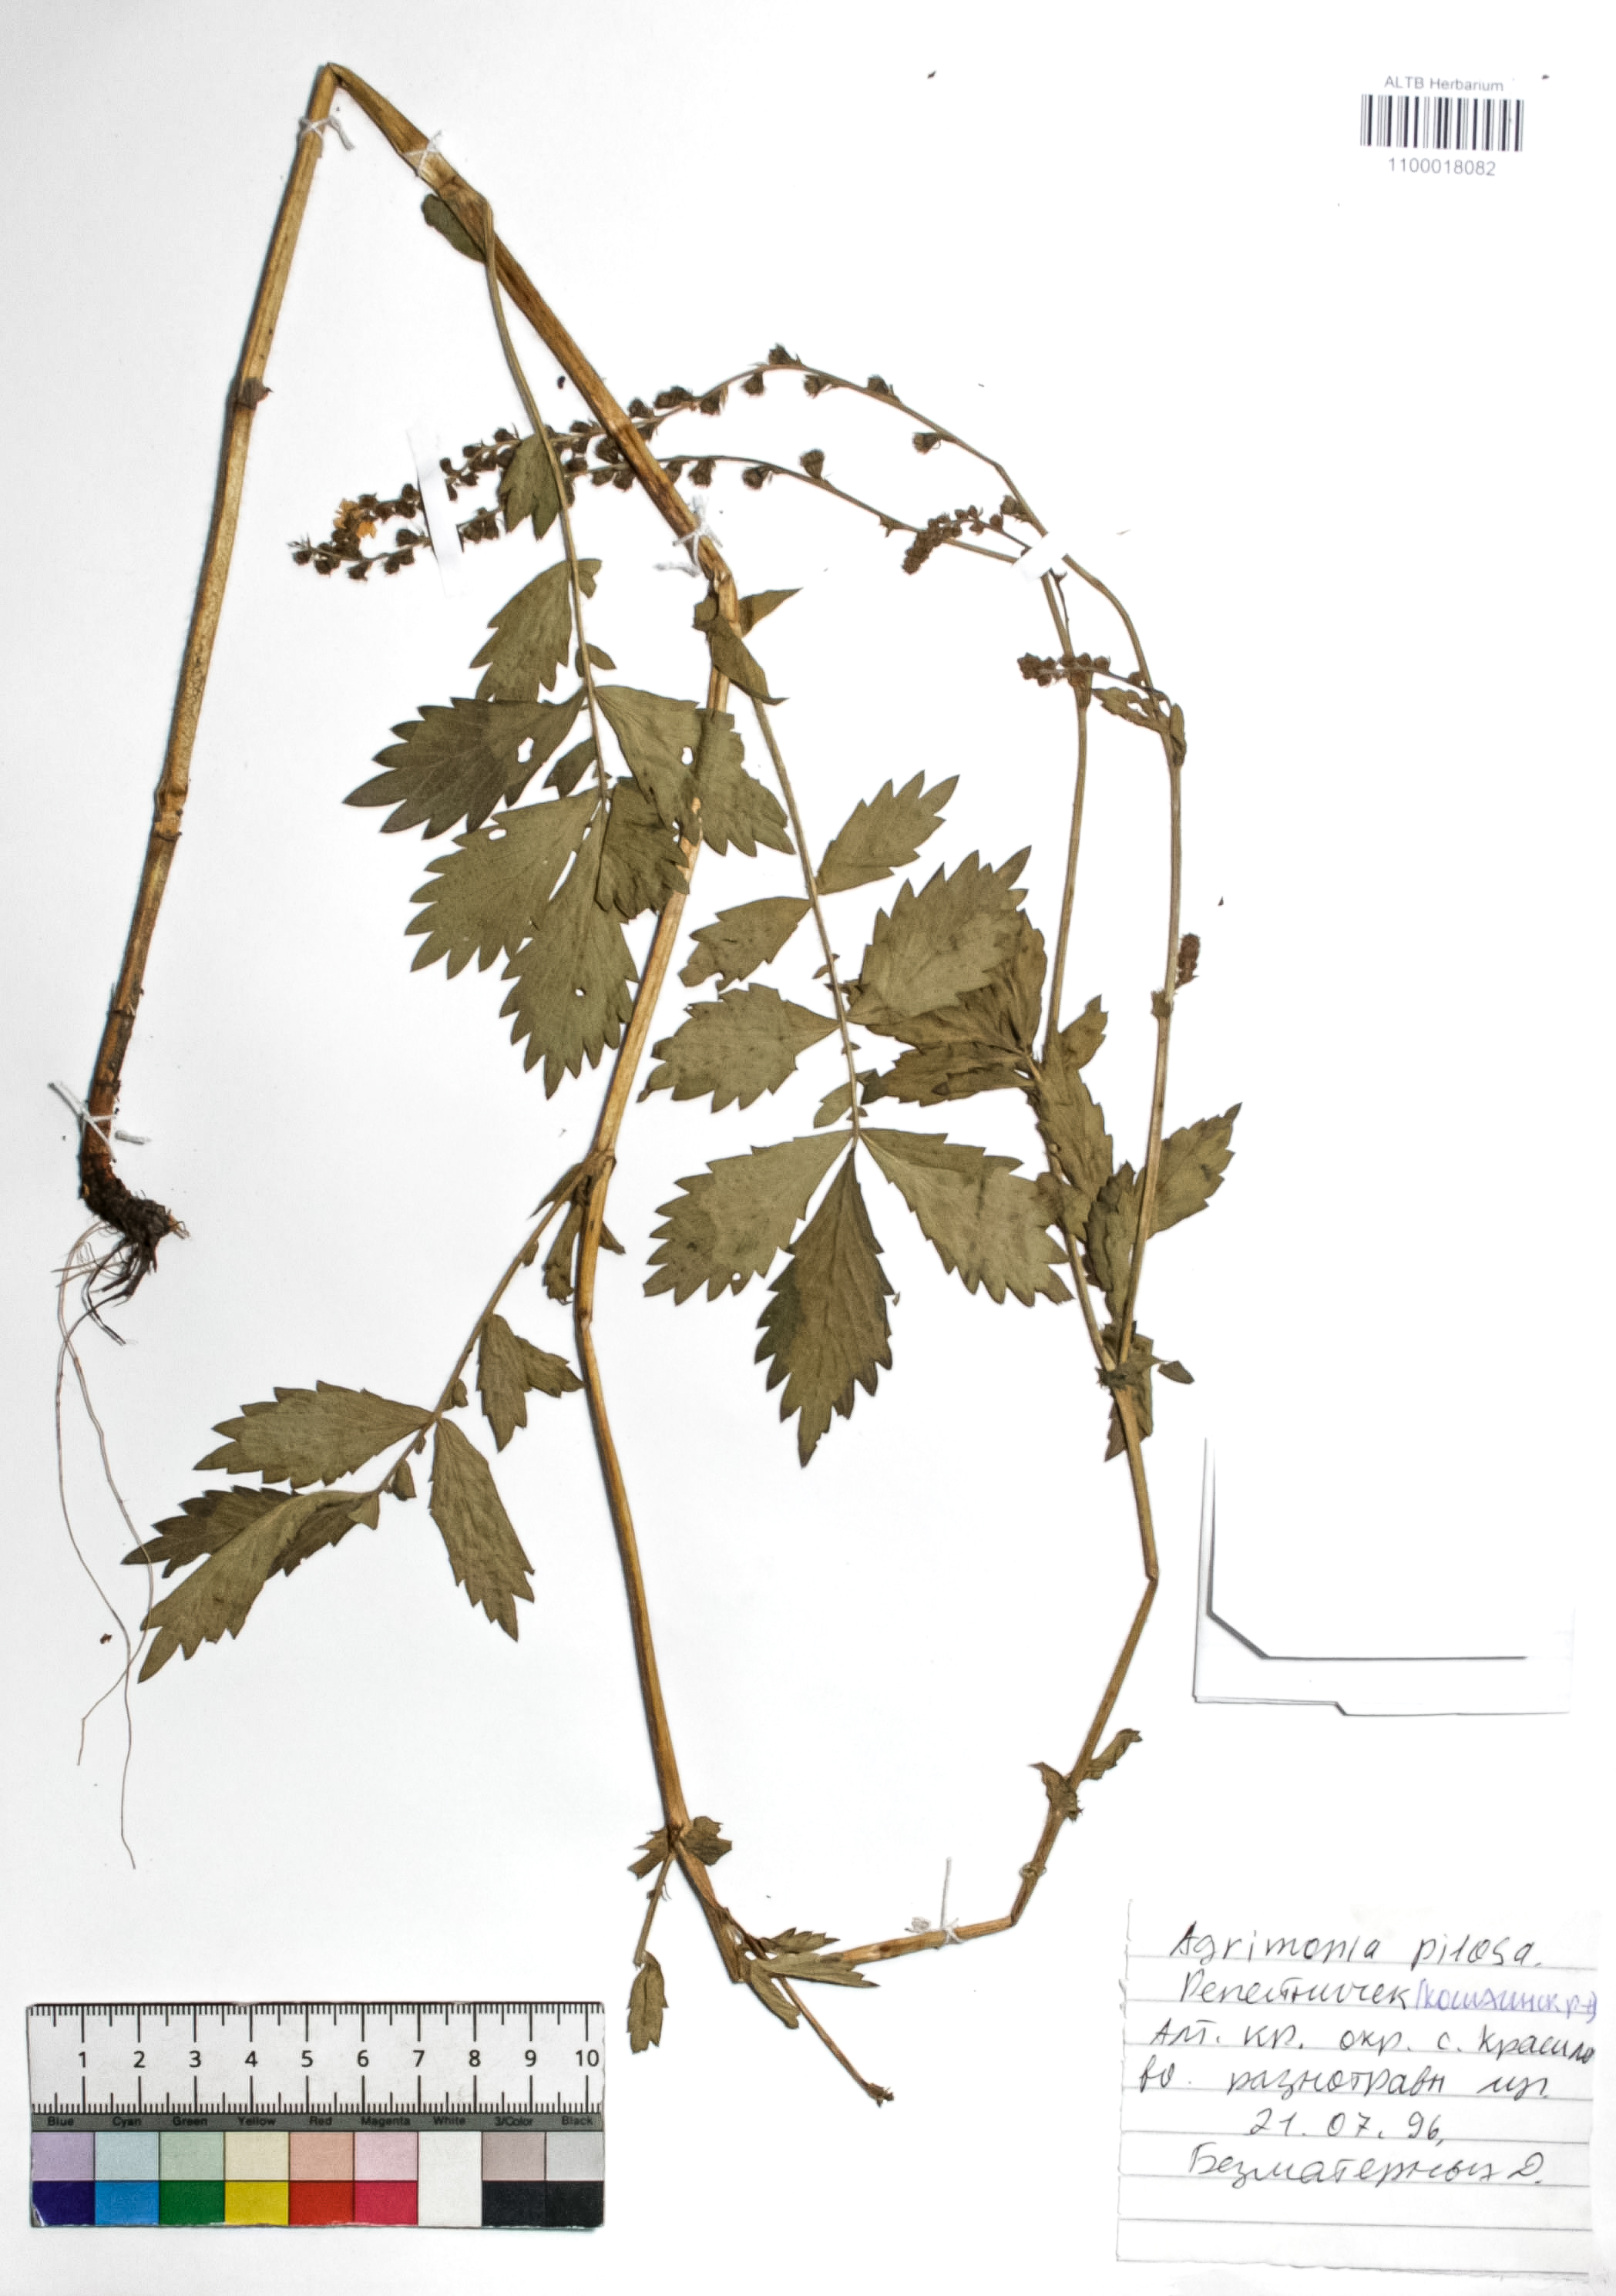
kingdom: Plantae
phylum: Tracheophyta
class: Magnoliopsida
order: Rosales
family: Rosaceae
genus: Agrimonia
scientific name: Agrimonia pilosa
